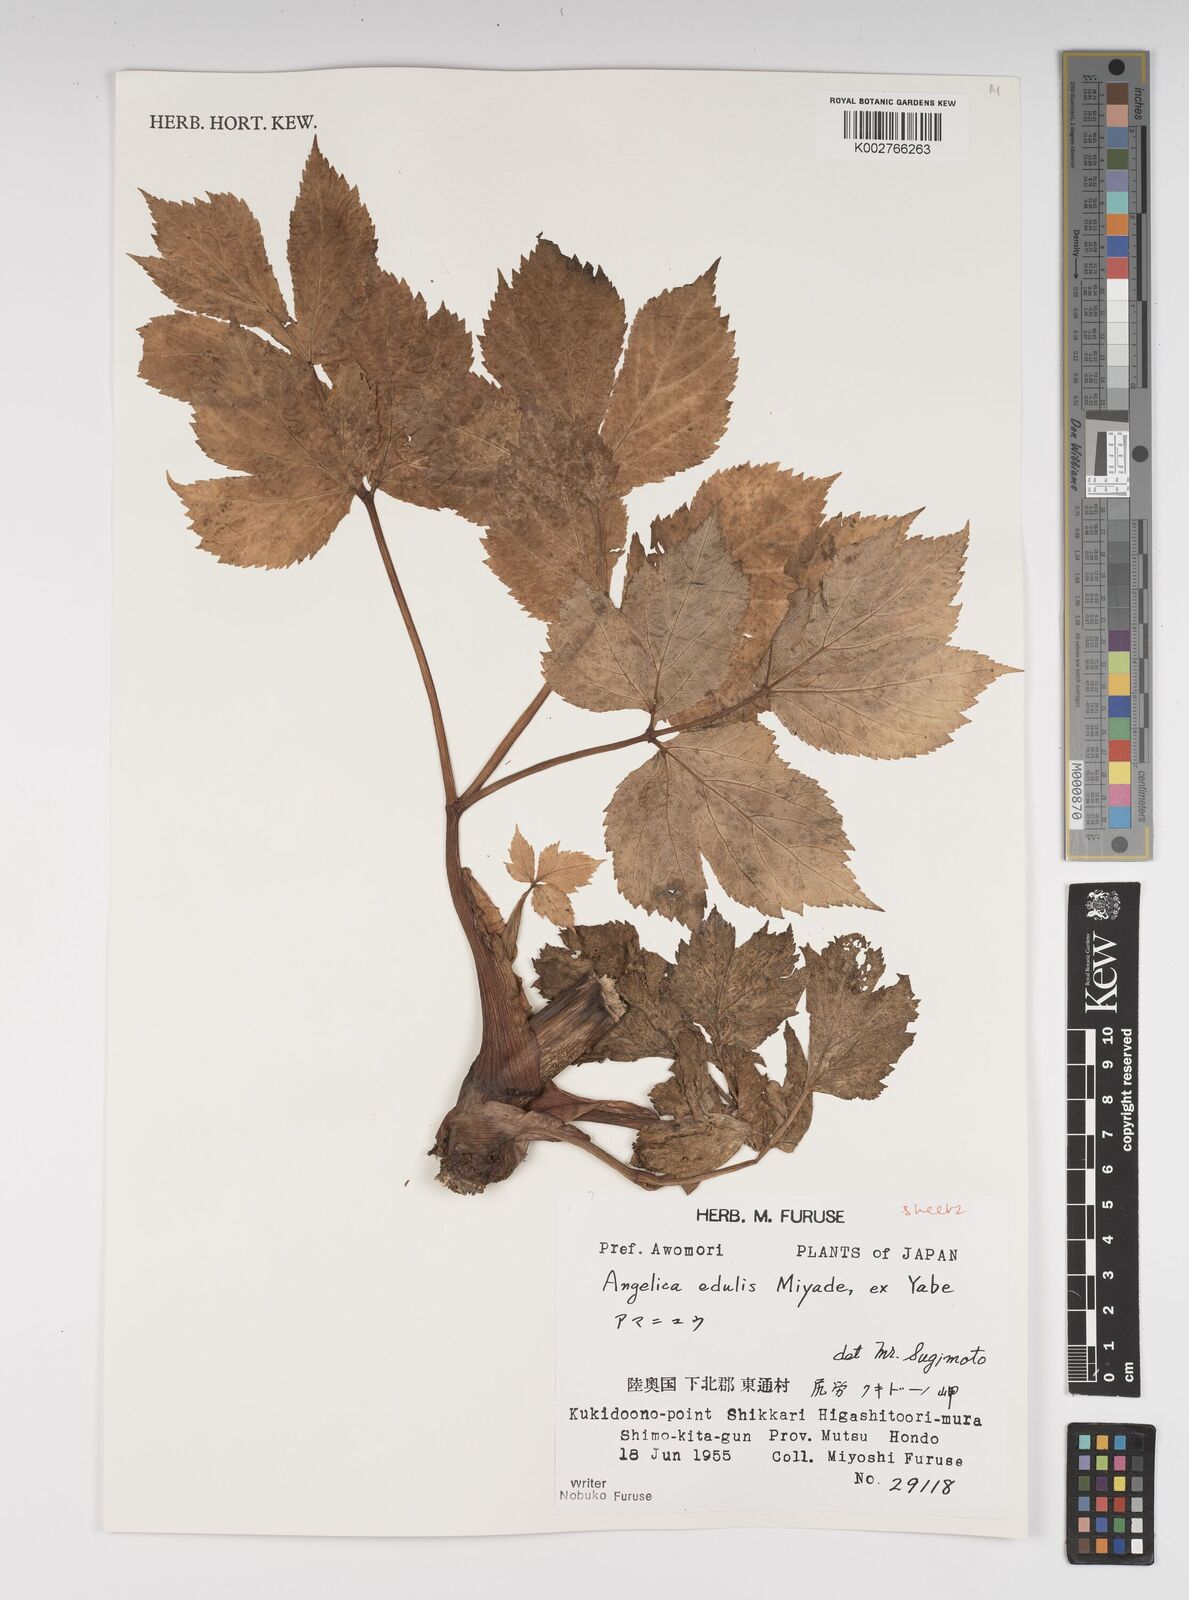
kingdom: Plantae
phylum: Tracheophyta
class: Magnoliopsida
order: Apiales
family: Apiaceae
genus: Angelica
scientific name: Angelica edulis
